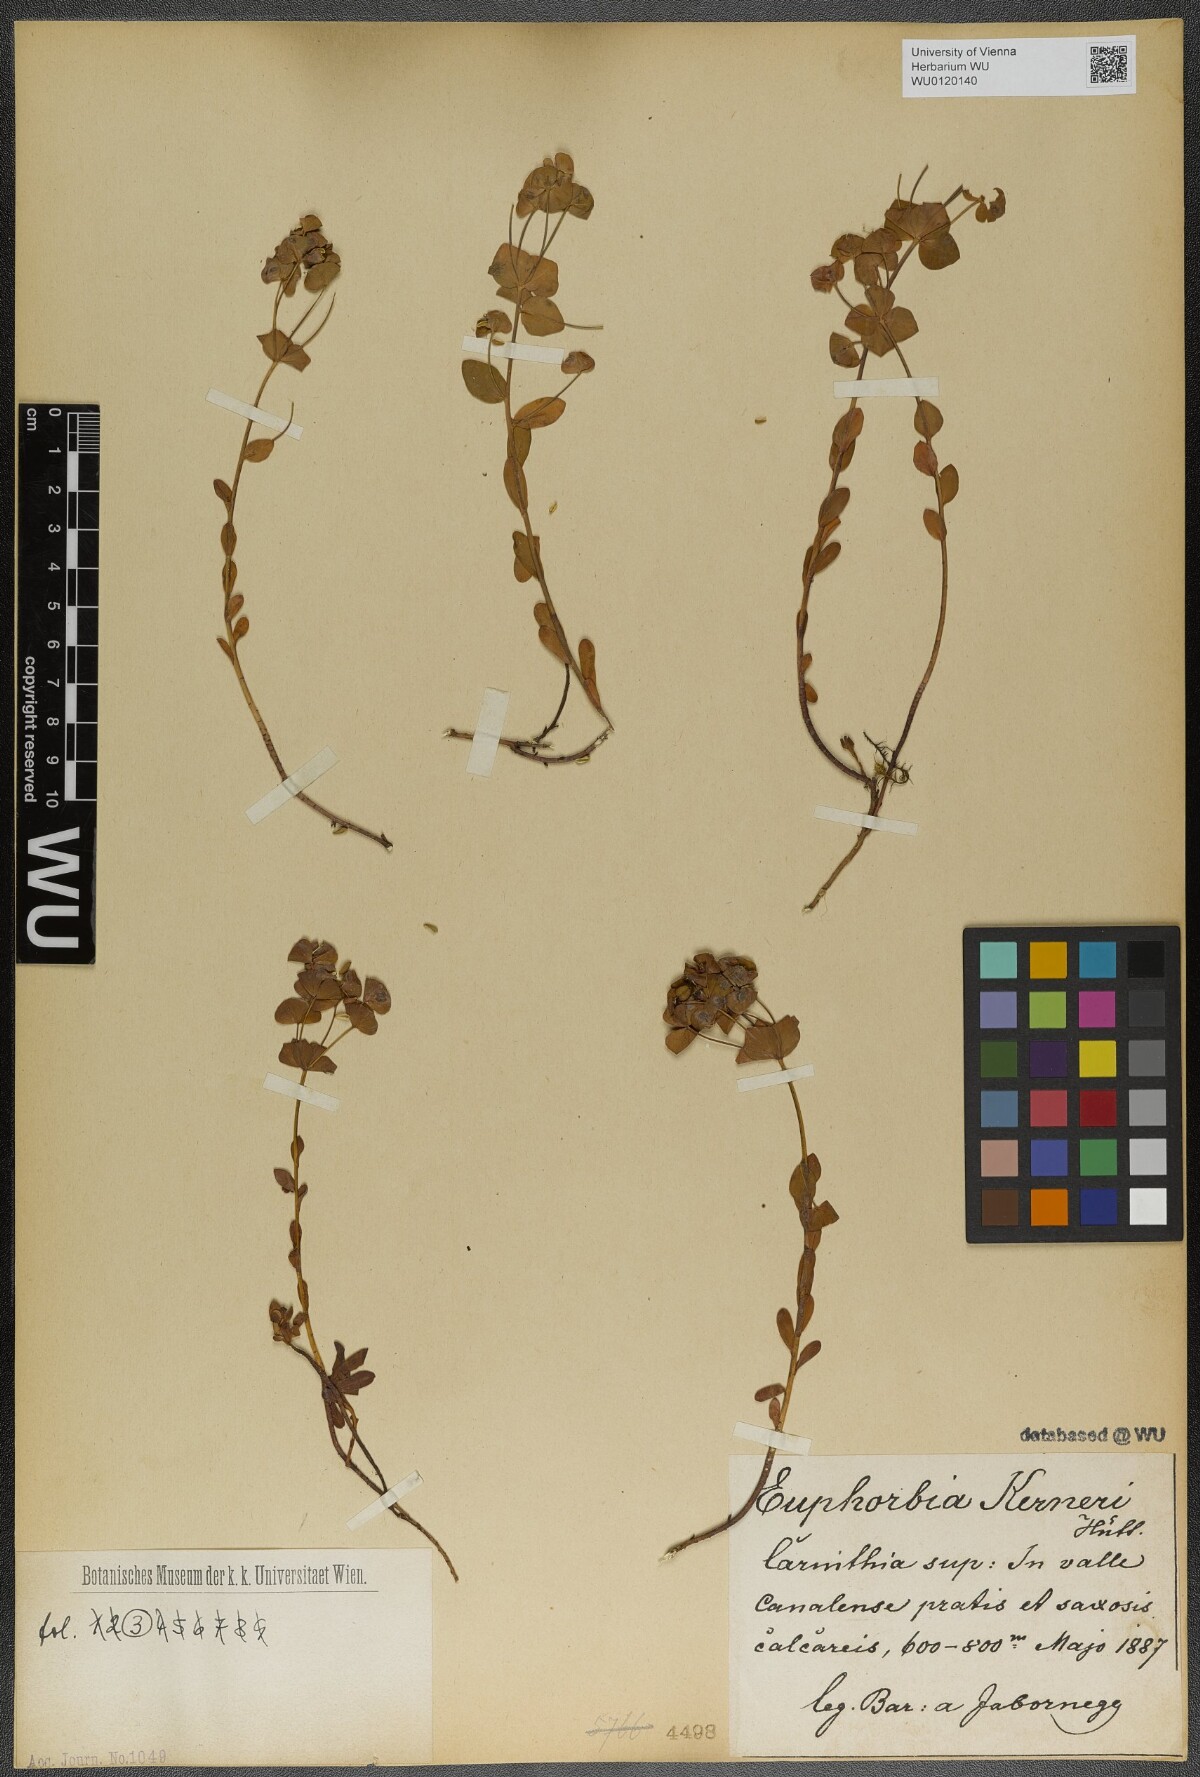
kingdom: Plantae
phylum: Tracheophyta
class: Magnoliopsida
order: Malpighiales
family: Euphorbiaceae
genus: Euphorbia
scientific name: Euphorbia kerneri
